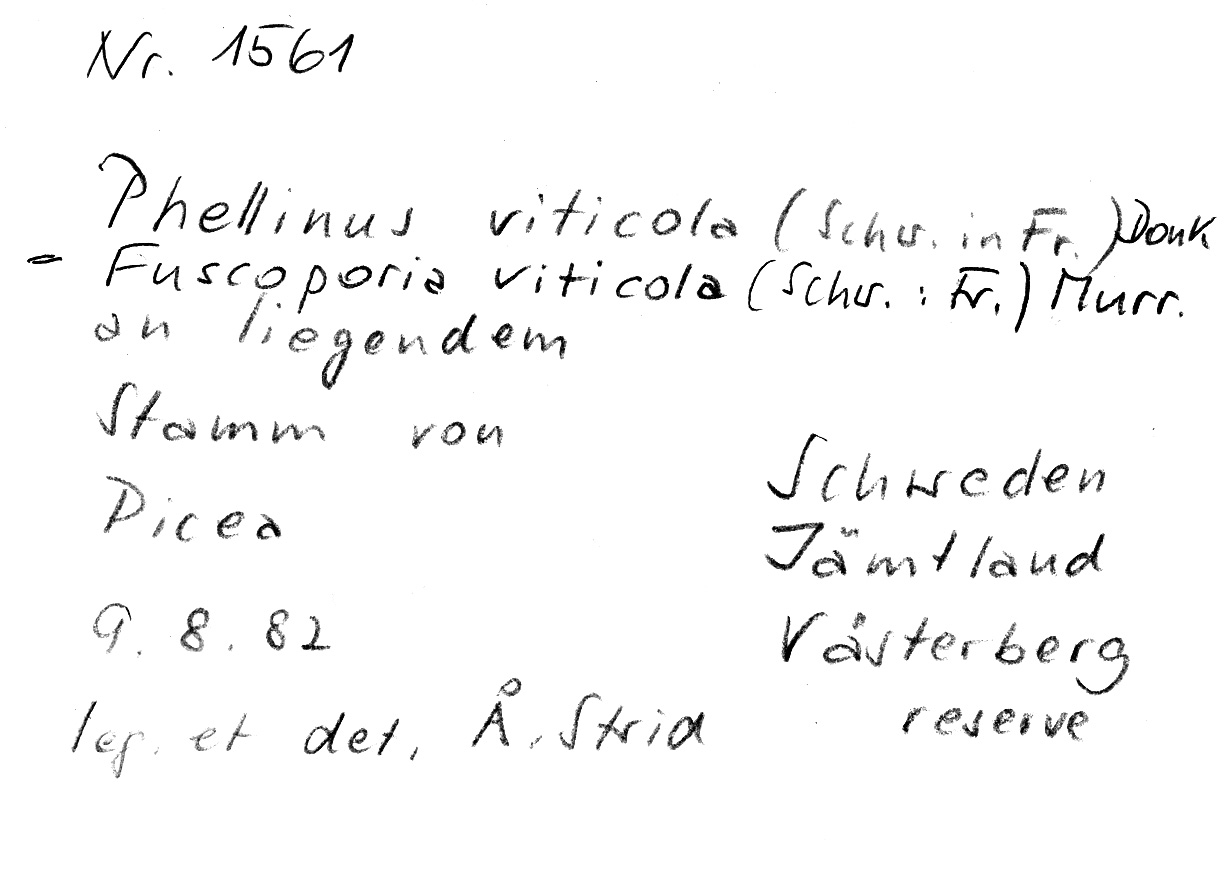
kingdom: Plantae
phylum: Tracheophyta
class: Pinopsida
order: Pinales
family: Pinaceae
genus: Picea
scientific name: Picea
